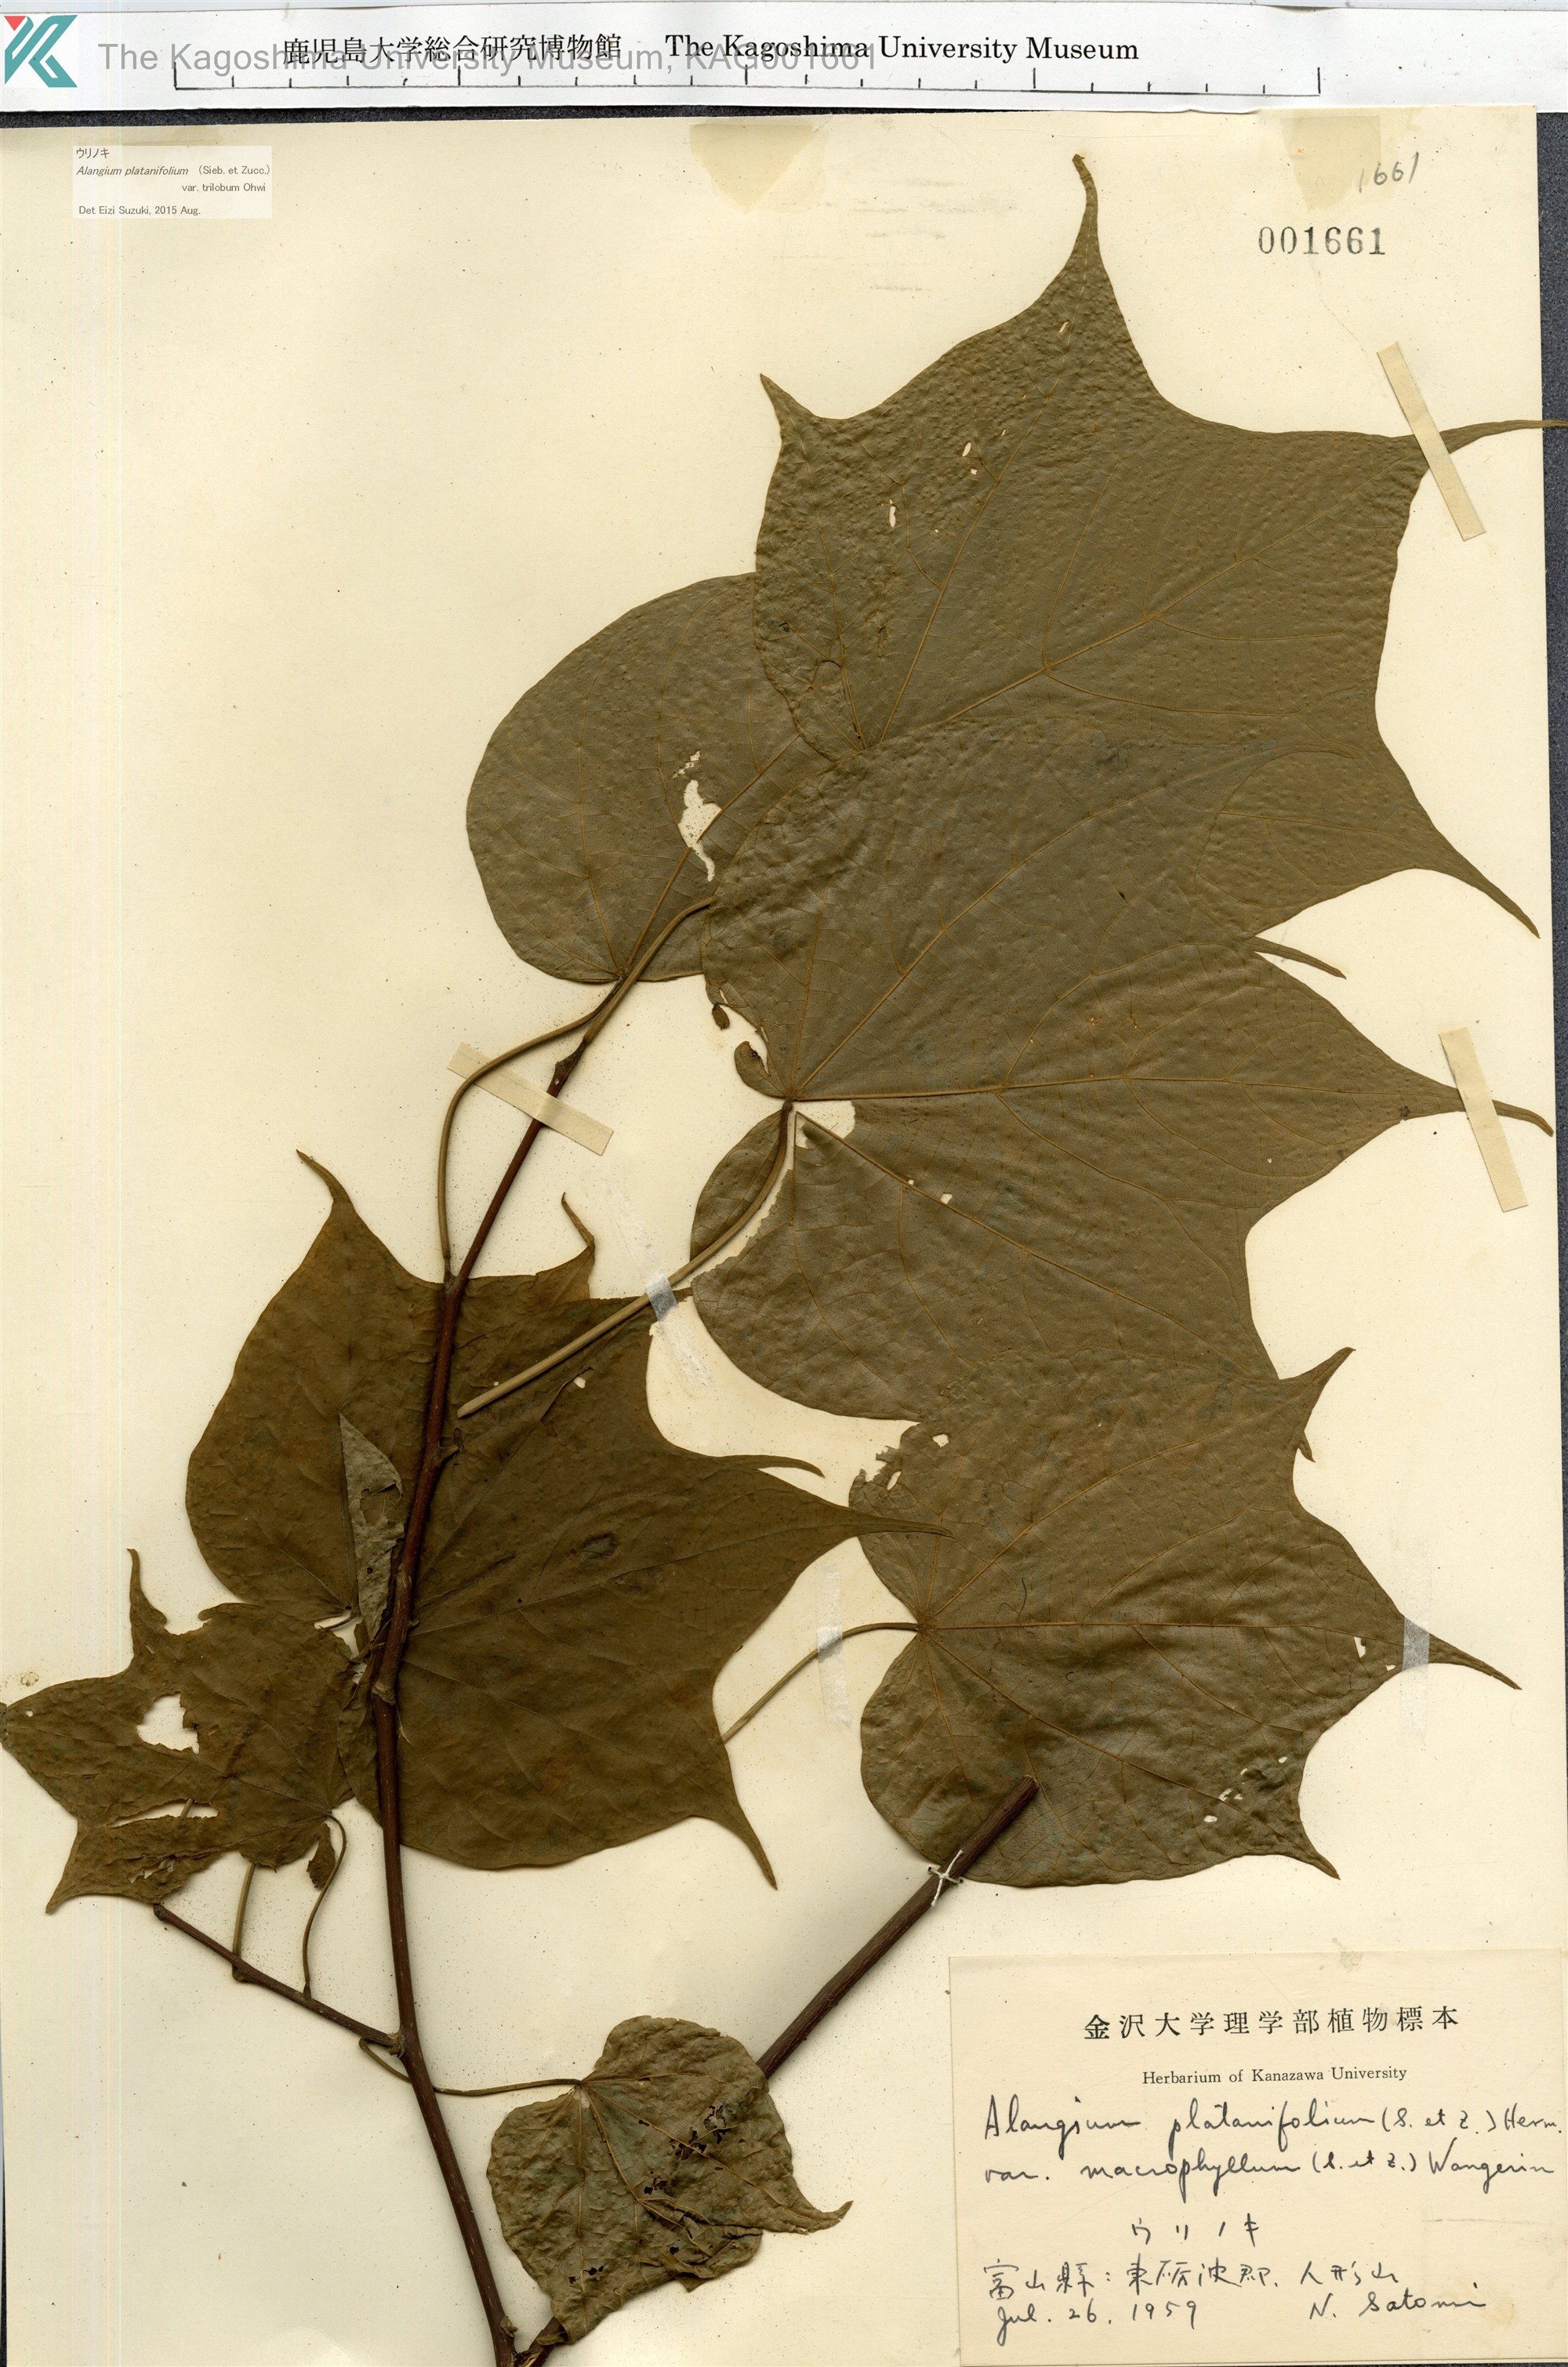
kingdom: Plantae
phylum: Tracheophyta
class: Magnoliopsida
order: Cornales
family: Cornaceae
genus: Alangium
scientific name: Alangium platanifolium
